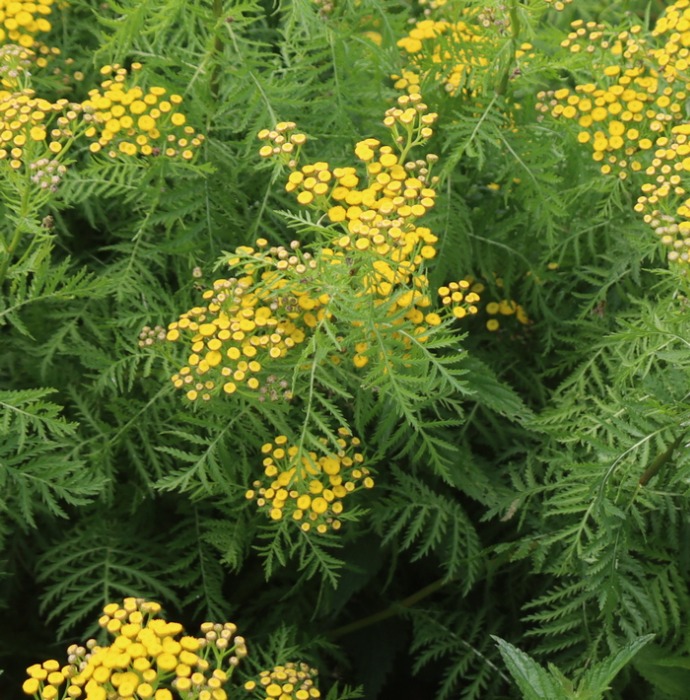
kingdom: Plantae
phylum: Tracheophyta
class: Magnoliopsida
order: Asterales
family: Asteraceae
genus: Tanacetum
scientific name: Tanacetum vulgare
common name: Rejnfan
